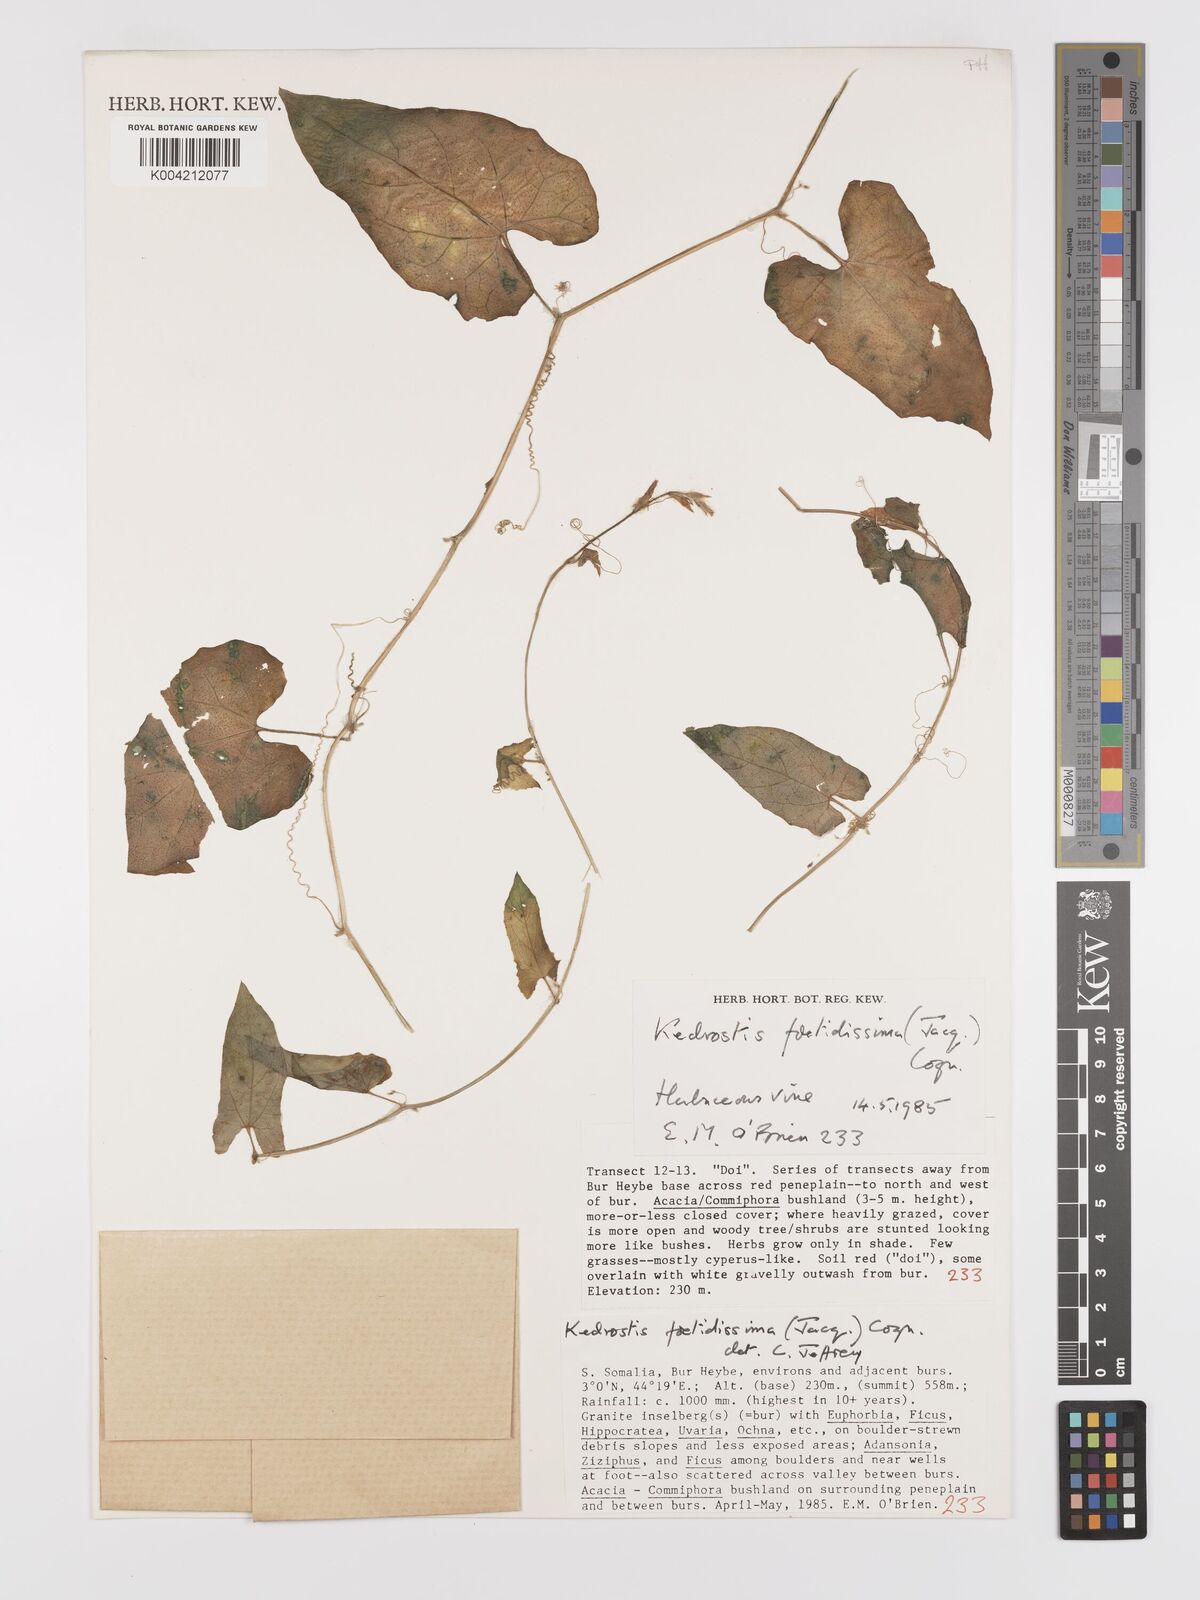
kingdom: Plantae
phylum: Tracheophyta
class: Magnoliopsida
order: Cucurbitales
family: Cucurbitaceae
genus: Kedrostis
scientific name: Kedrostis foetidissima
